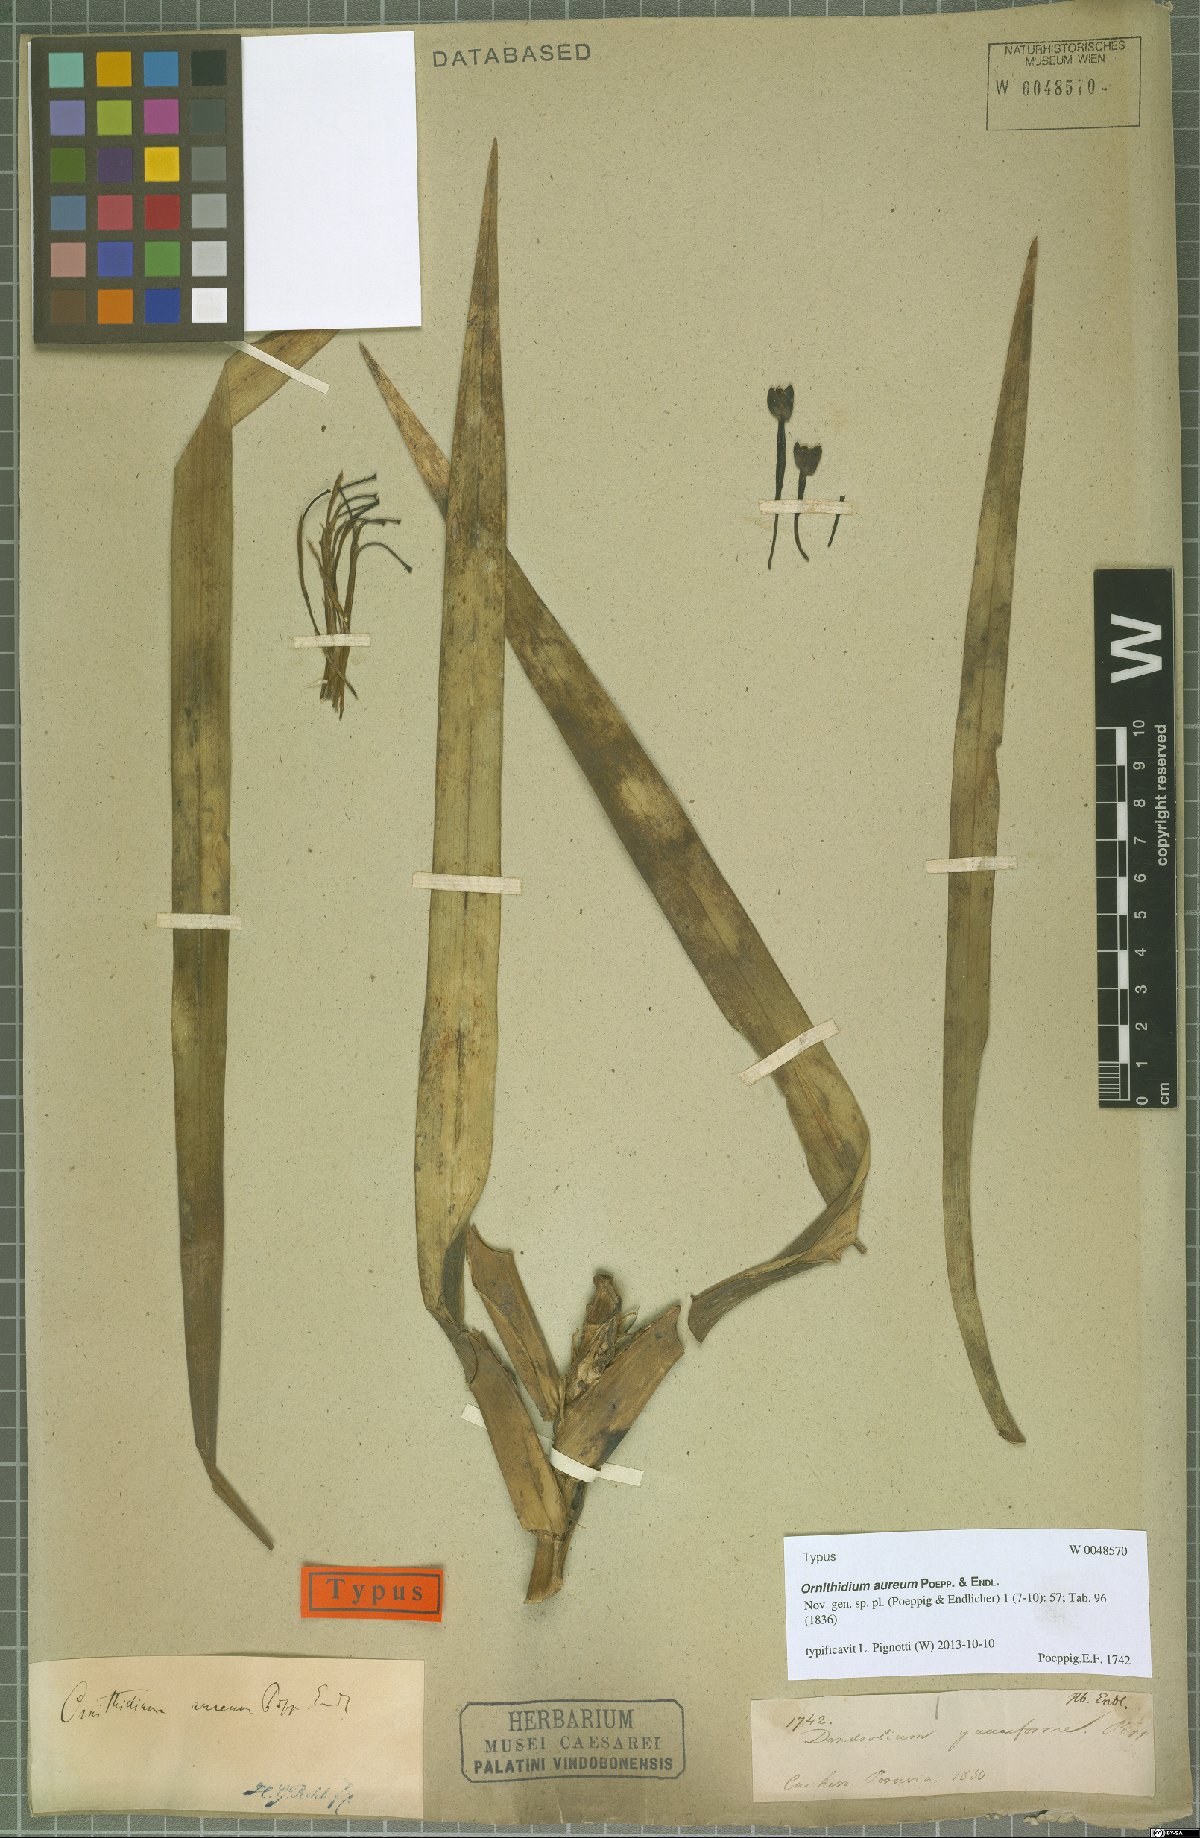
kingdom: Plantae
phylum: Tracheophyta
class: Liliopsida
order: Asparagales
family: Orchidaceae
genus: Maxillaria
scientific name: Maxillaria aurea
